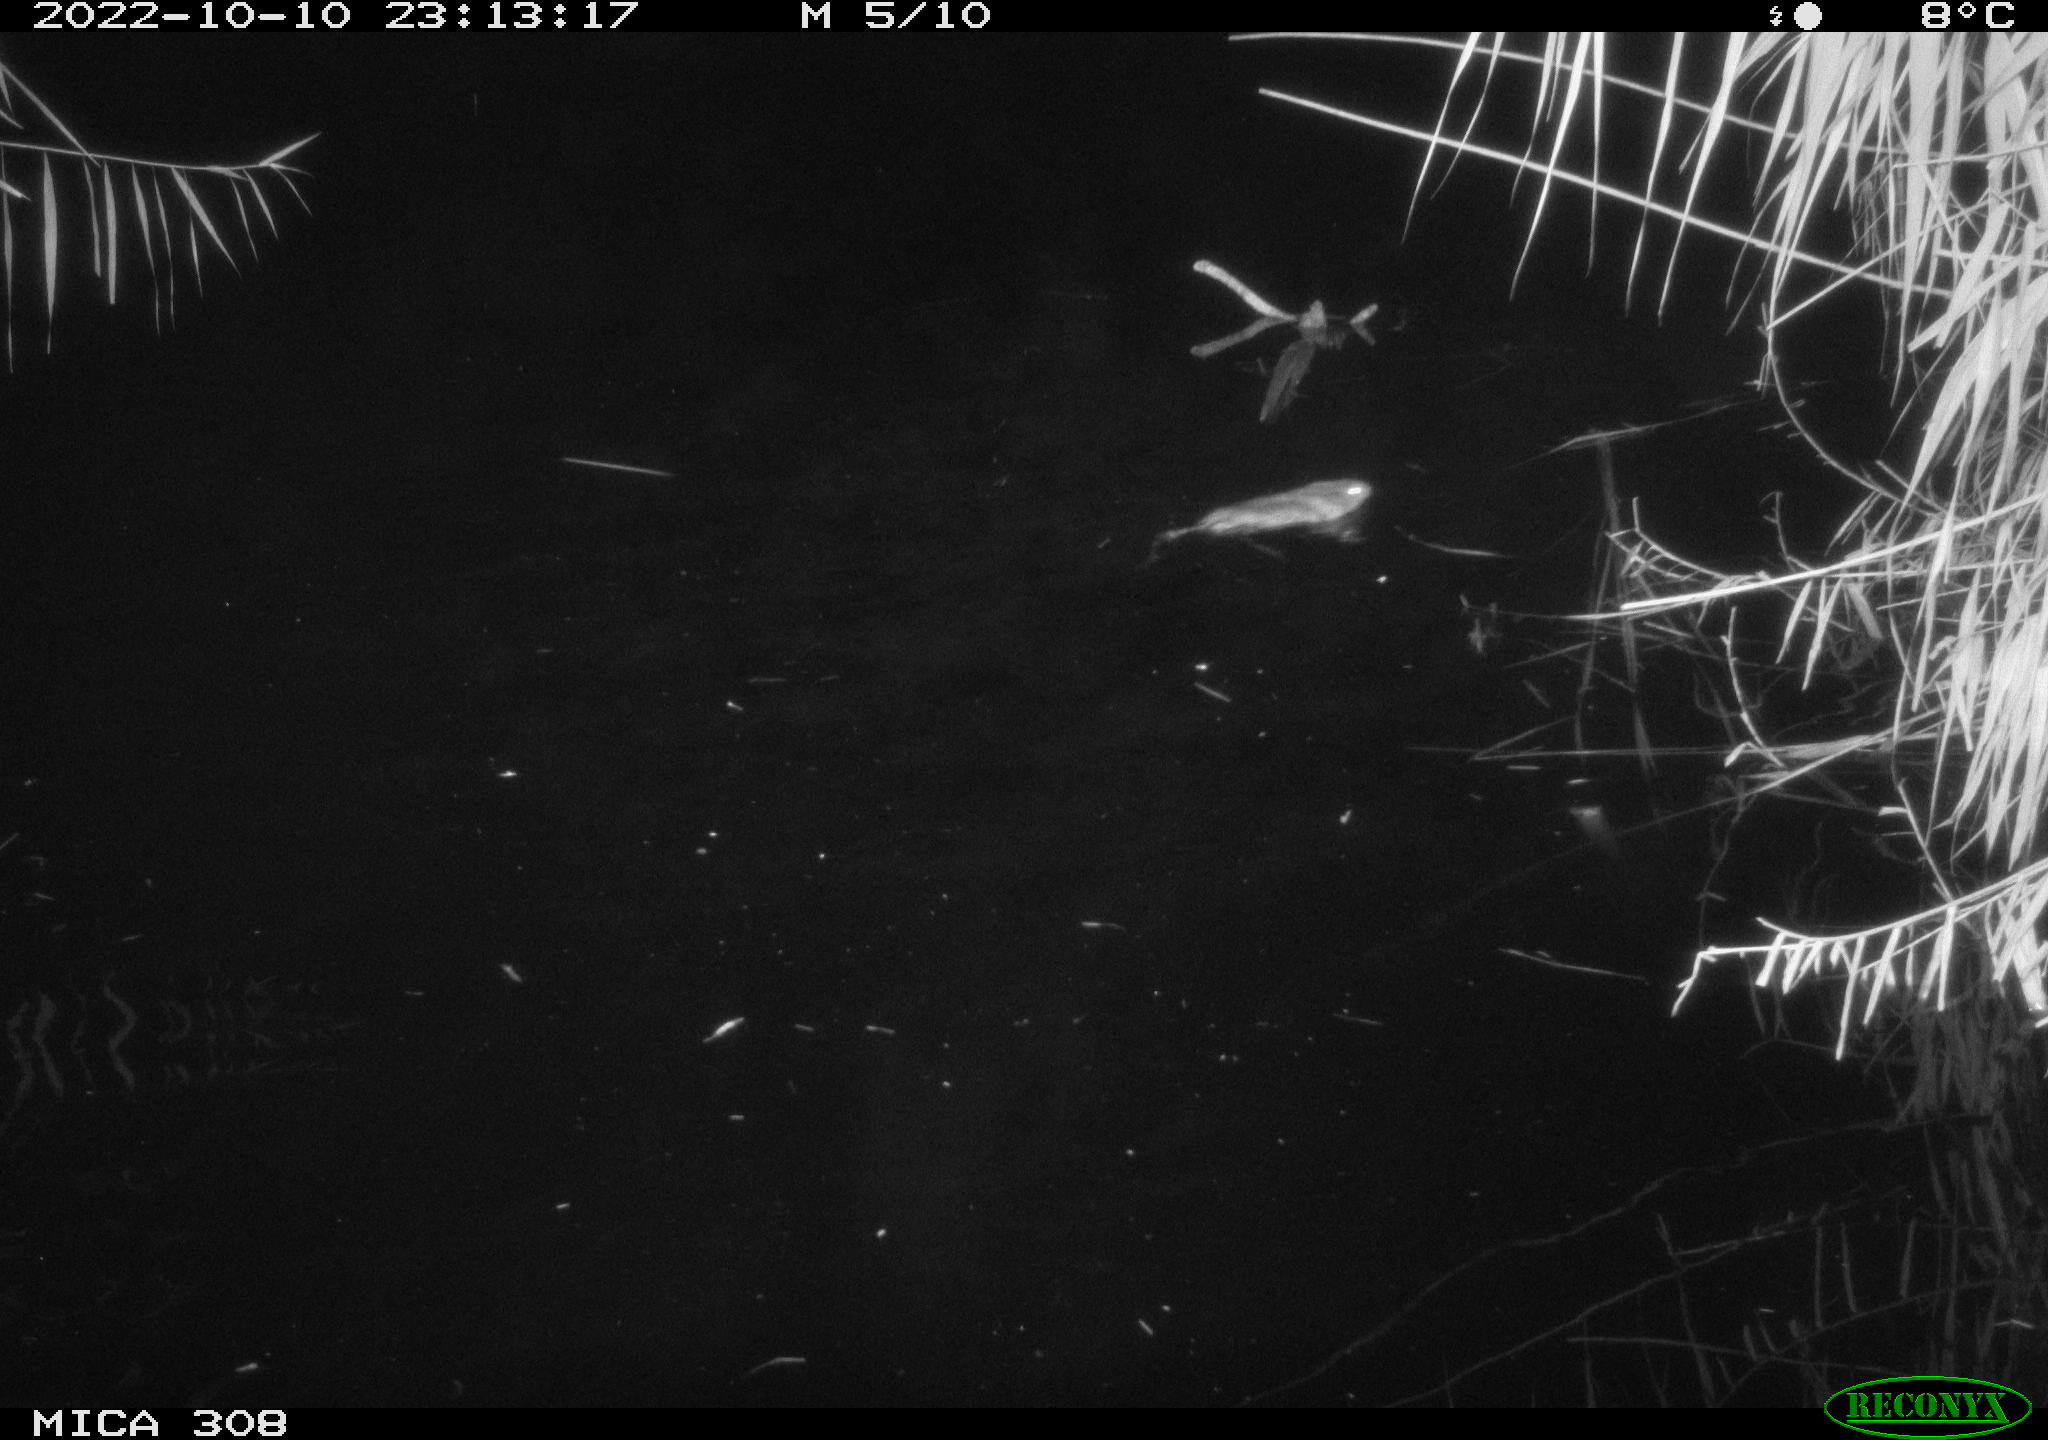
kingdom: Animalia
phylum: Chordata
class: Mammalia
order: Rodentia
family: Cricetidae
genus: Ondatra
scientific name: Ondatra zibethicus
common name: Muskrat
